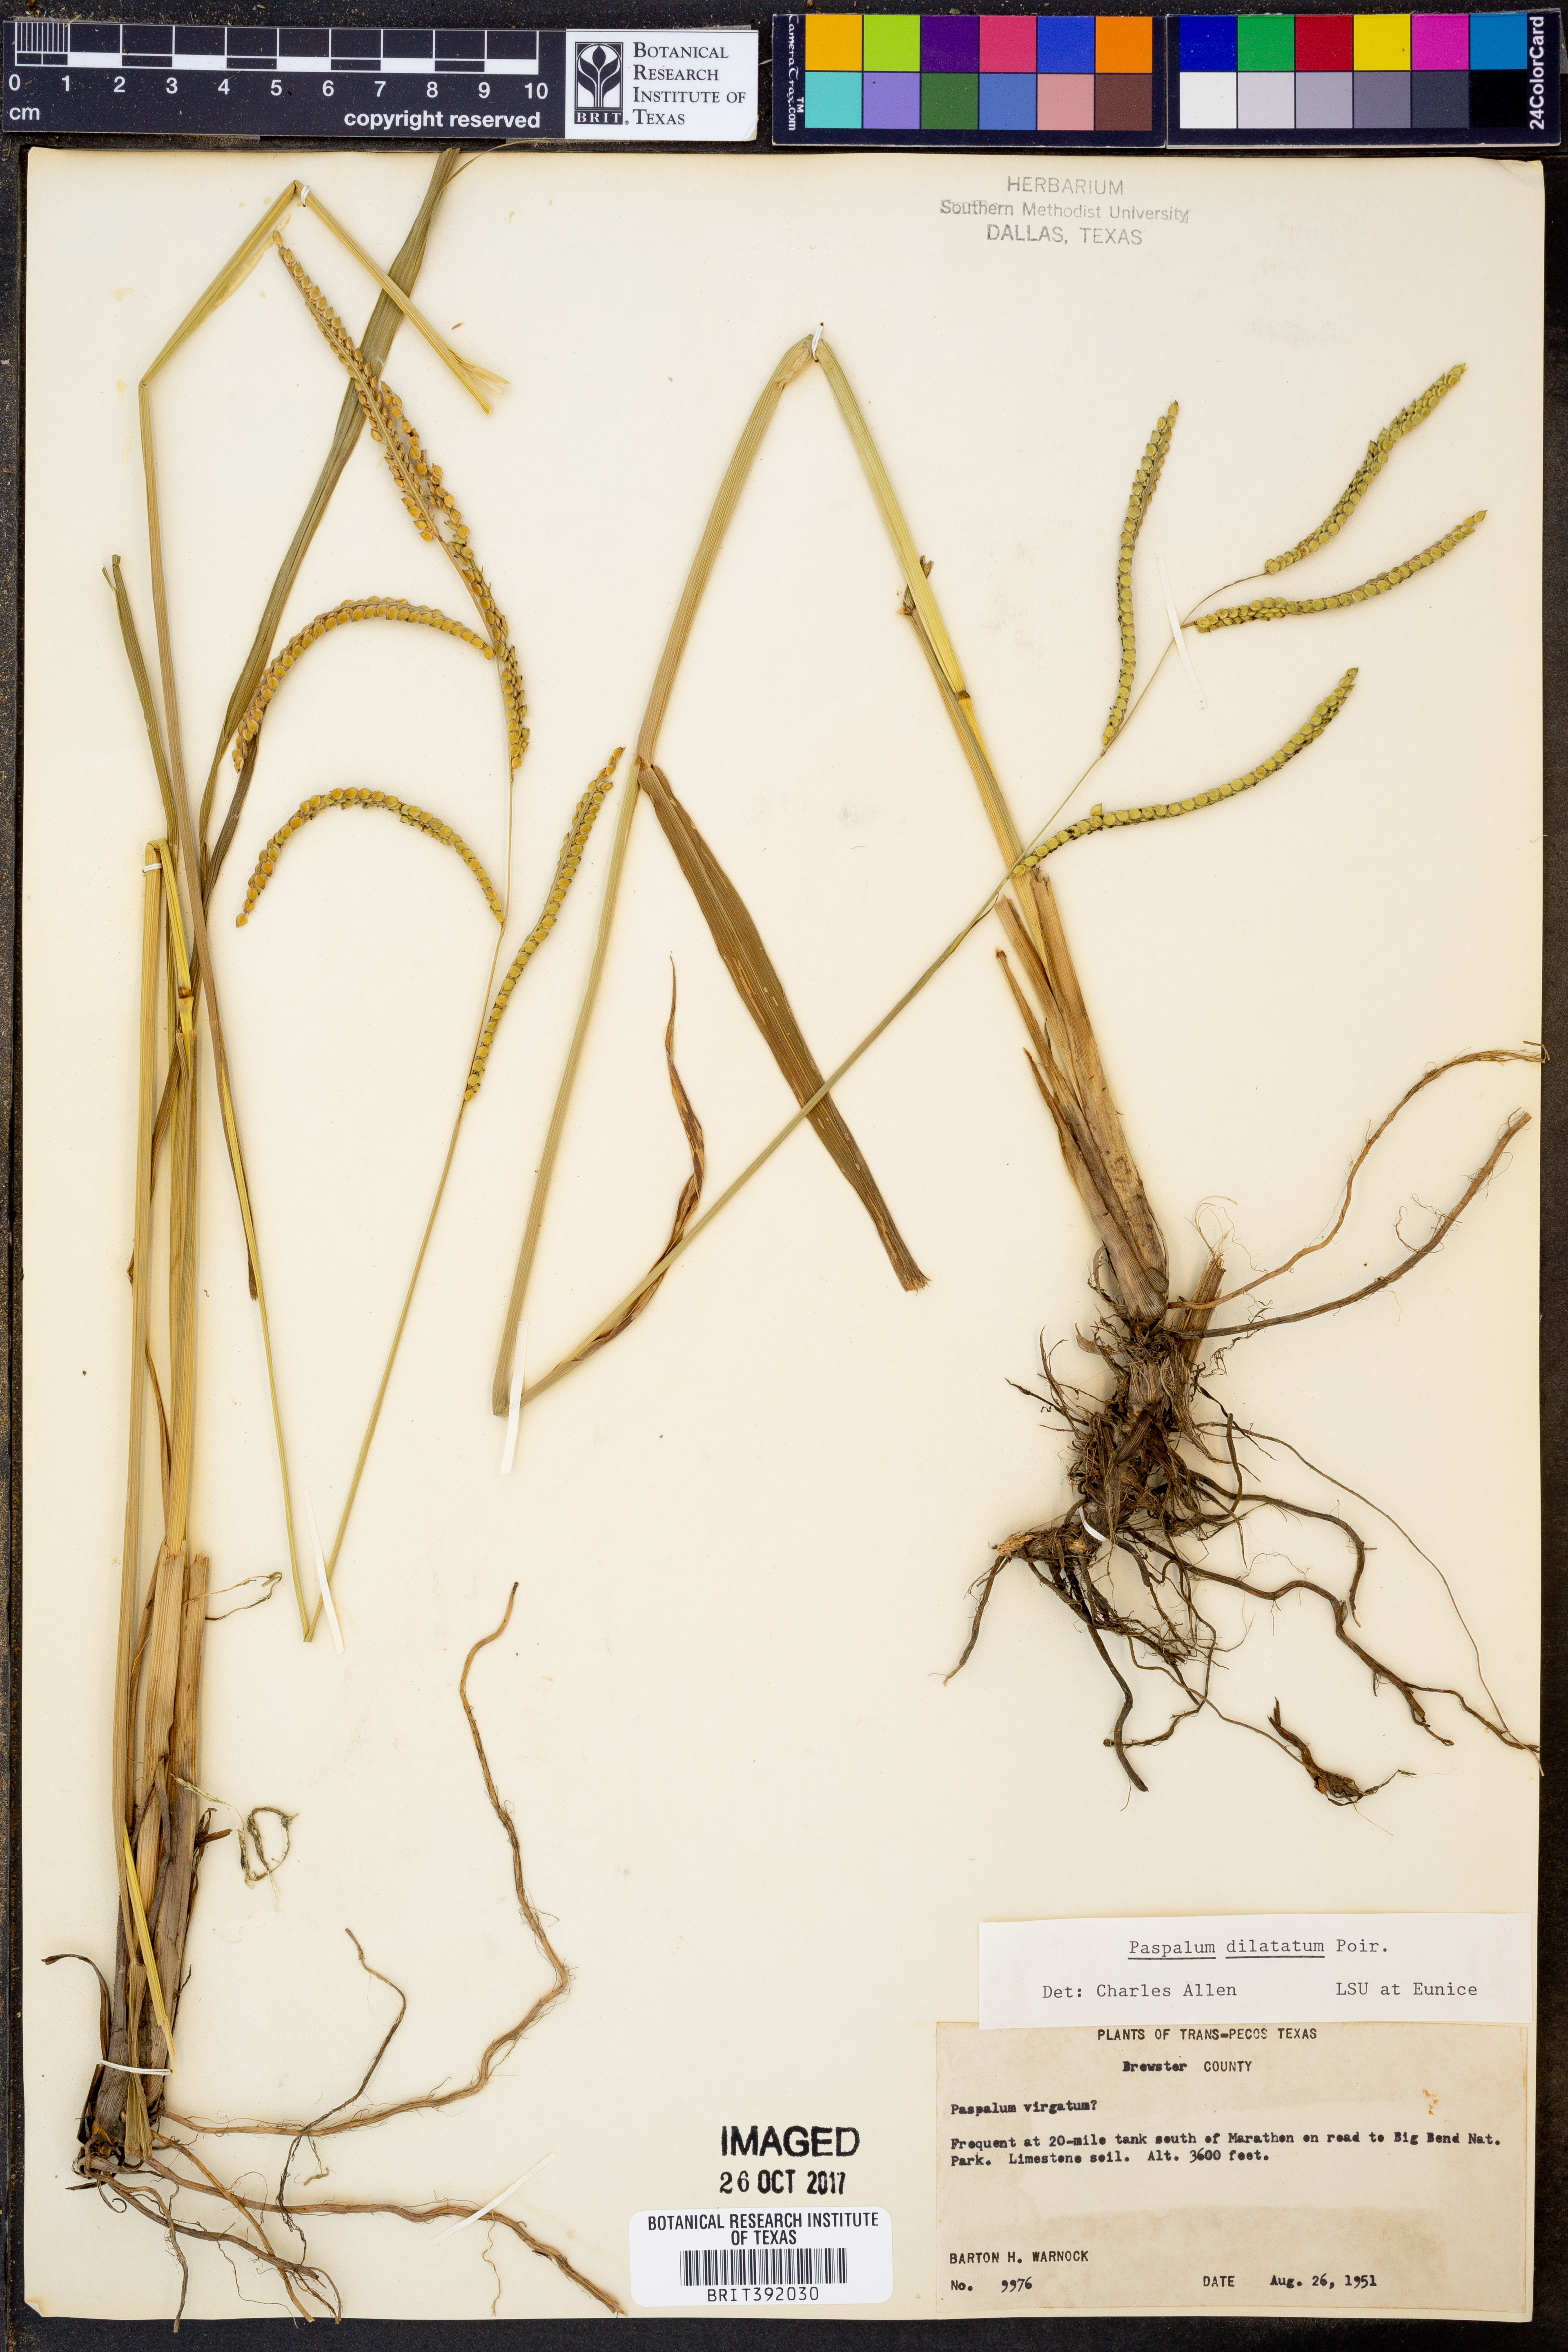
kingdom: Plantae
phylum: Tracheophyta
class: Liliopsida
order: Poales
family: Poaceae
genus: Paspalum
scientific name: Paspalum dilatatum
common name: Dallisgrass
